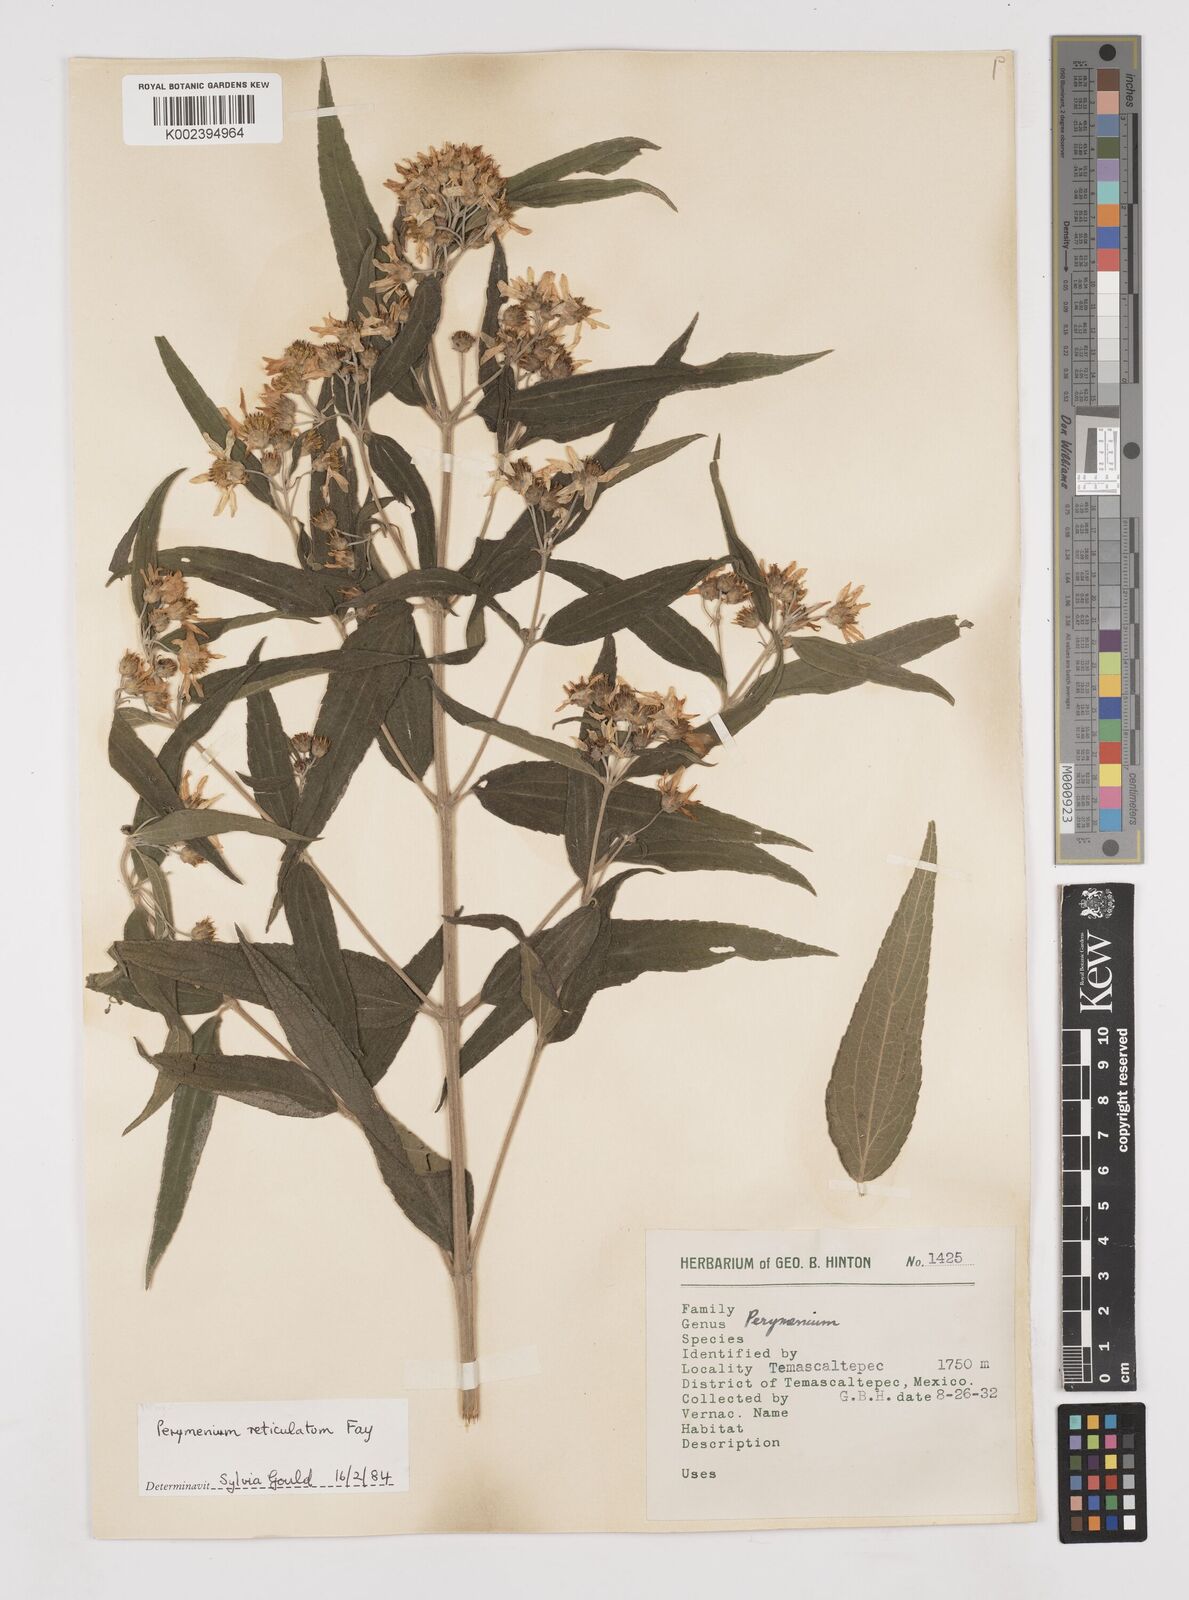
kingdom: Plantae
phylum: Tracheophyta
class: Magnoliopsida
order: Asterales
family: Asteraceae
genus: Perymenium
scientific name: Perymenium reticulatum
